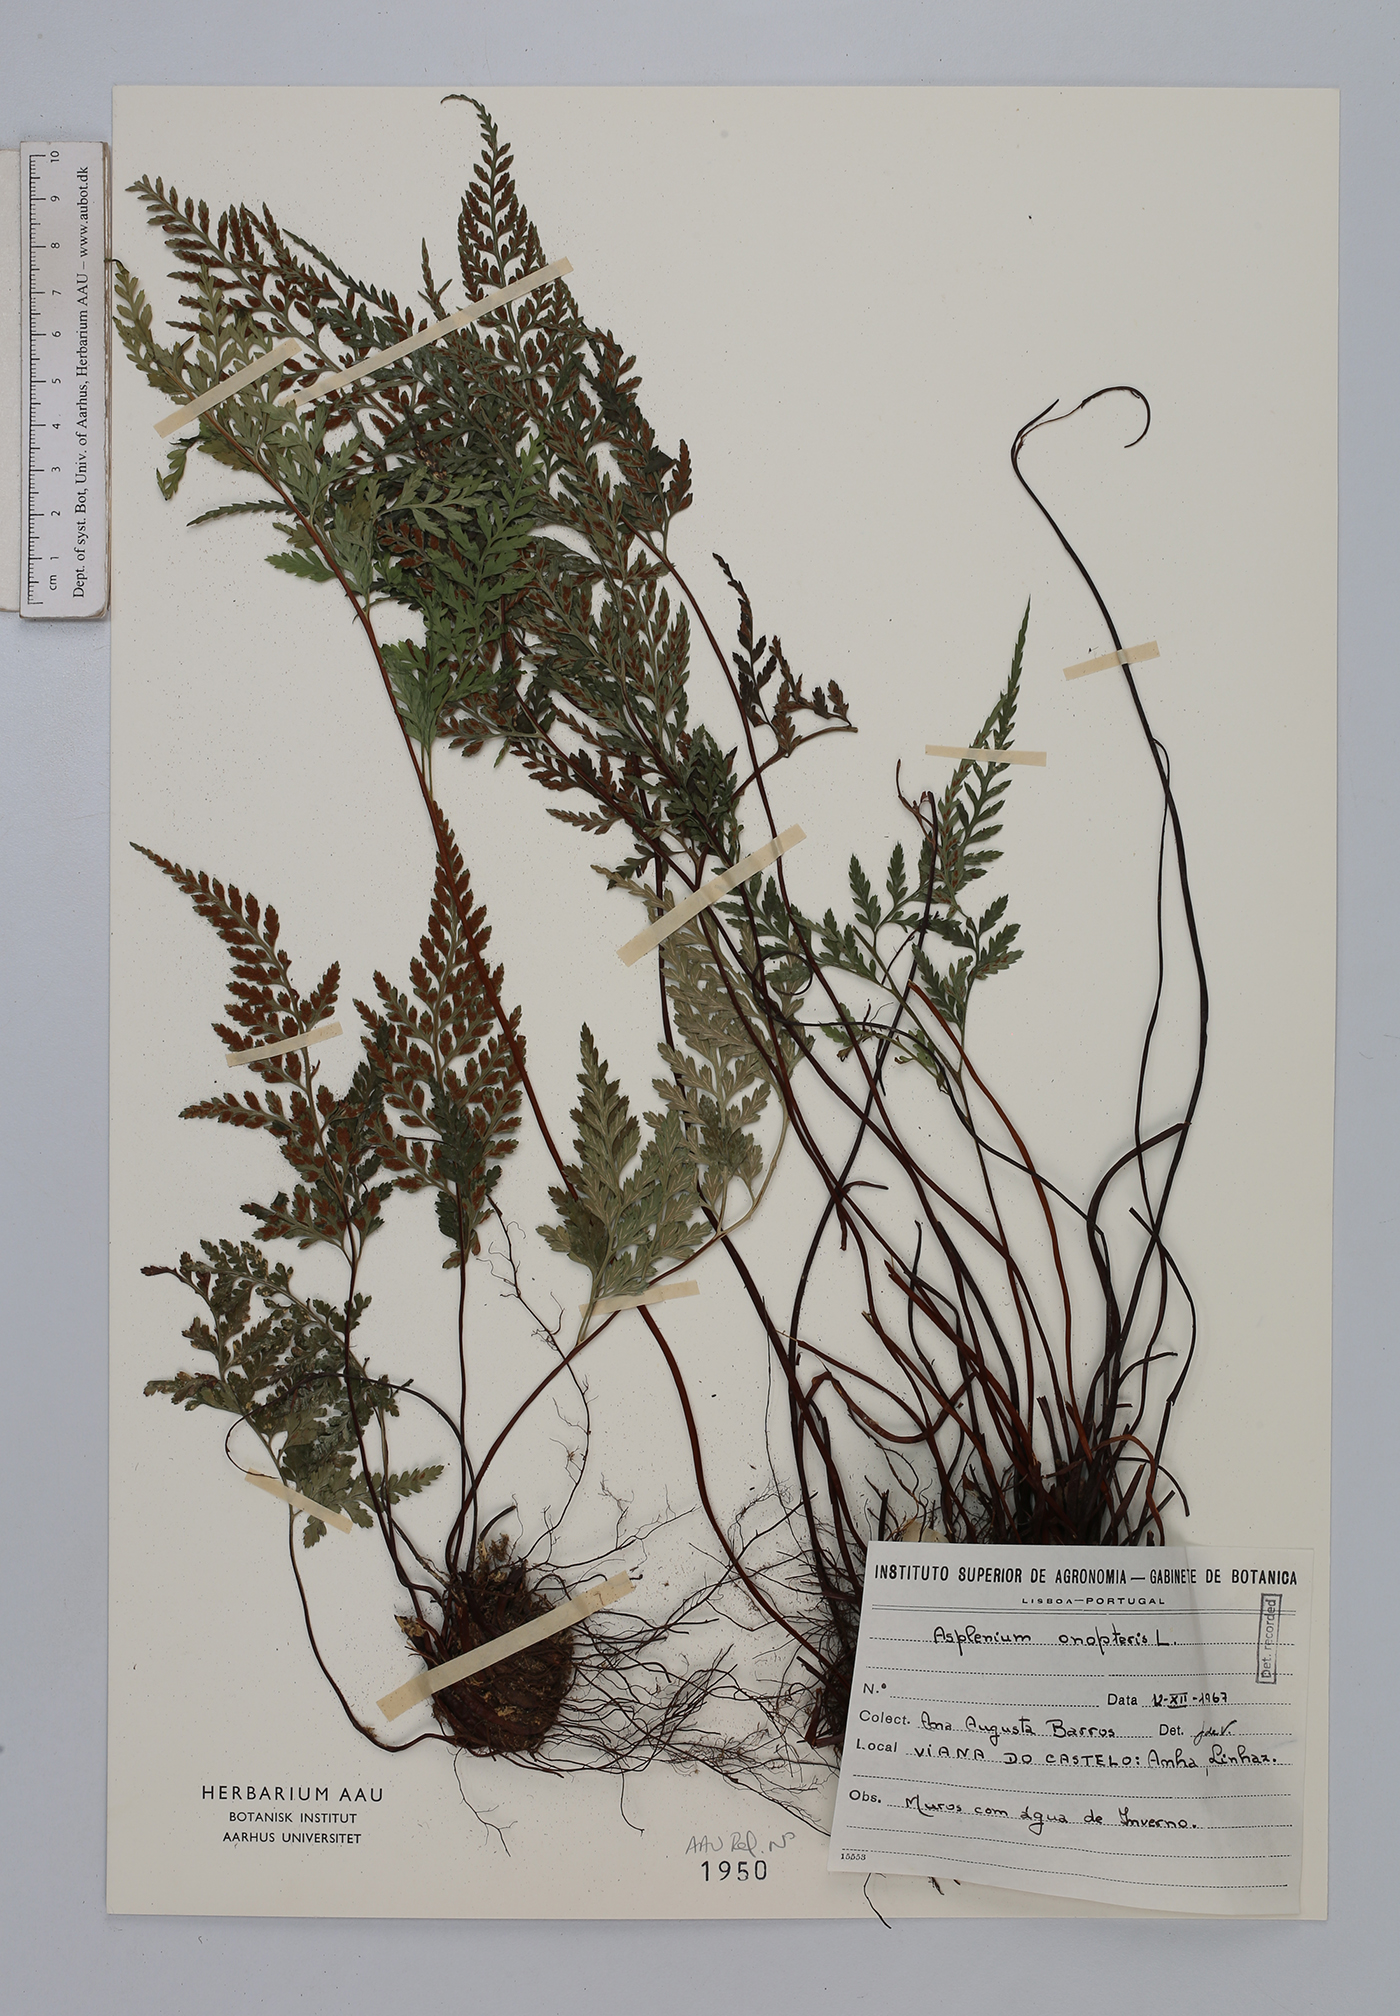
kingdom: Plantae
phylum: Tracheophyta
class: Polypodiopsida
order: Polypodiales
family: Aspleniaceae
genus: Asplenium
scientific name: Asplenium onopteris
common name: Irish spleenwort
